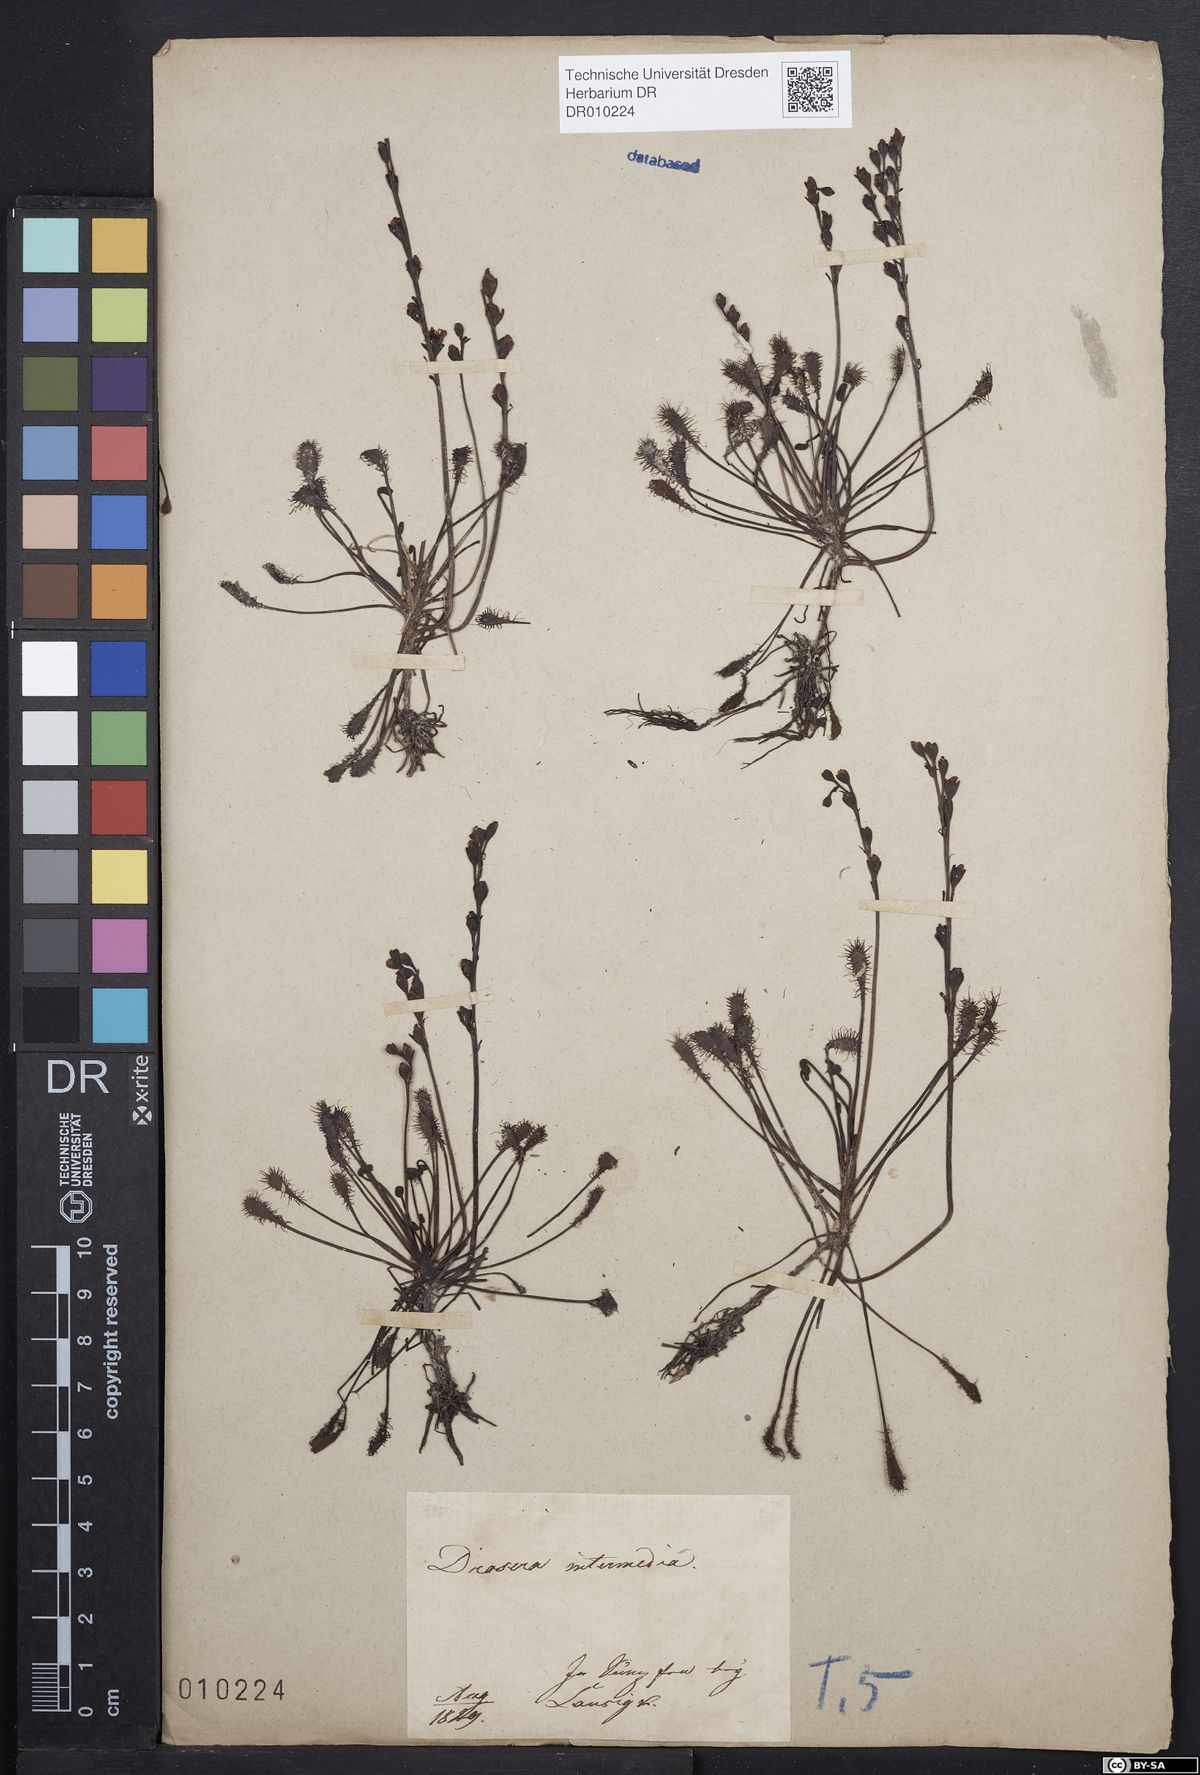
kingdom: Plantae
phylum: Tracheophyta
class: Magnoliopsida
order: Caryophyllales
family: Droseraceae
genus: Drosera
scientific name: Drosera intermedia
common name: Oblong-leaved sundew
